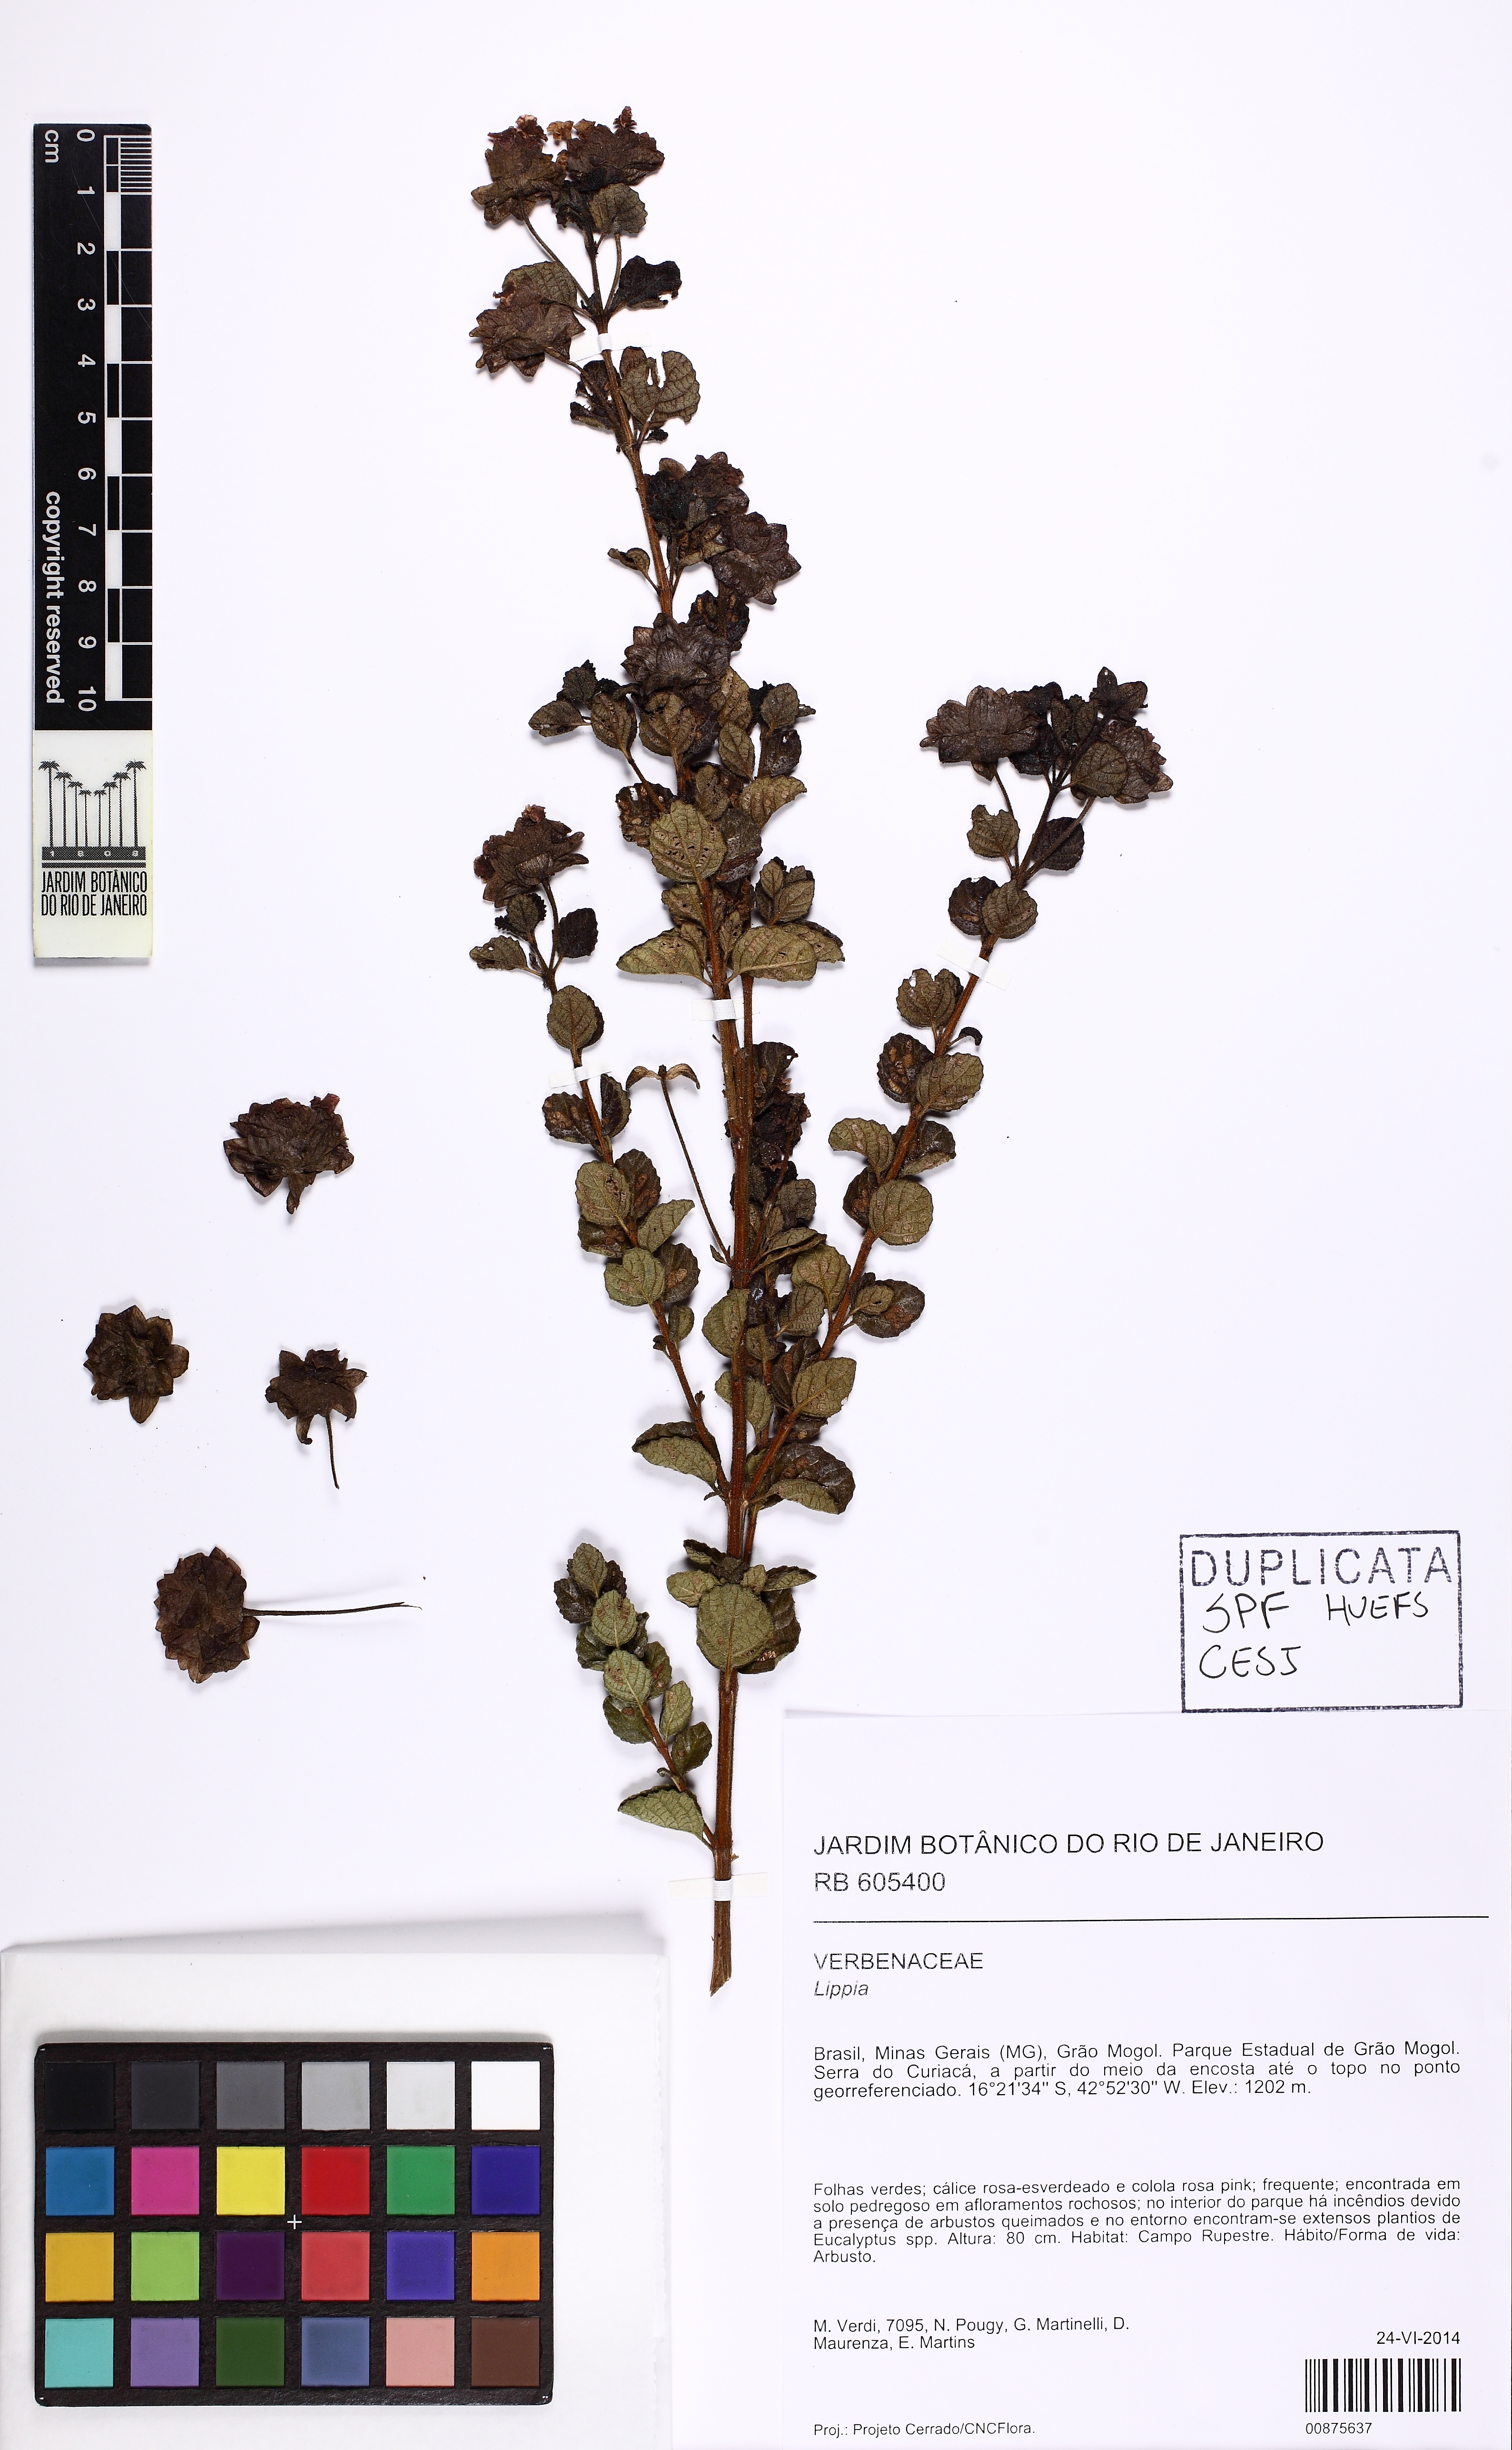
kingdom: Plantae
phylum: Tracheophyta
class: Magnoliopsida
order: Lamiales
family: Verbenaceae
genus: Lippia
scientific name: Lippia
